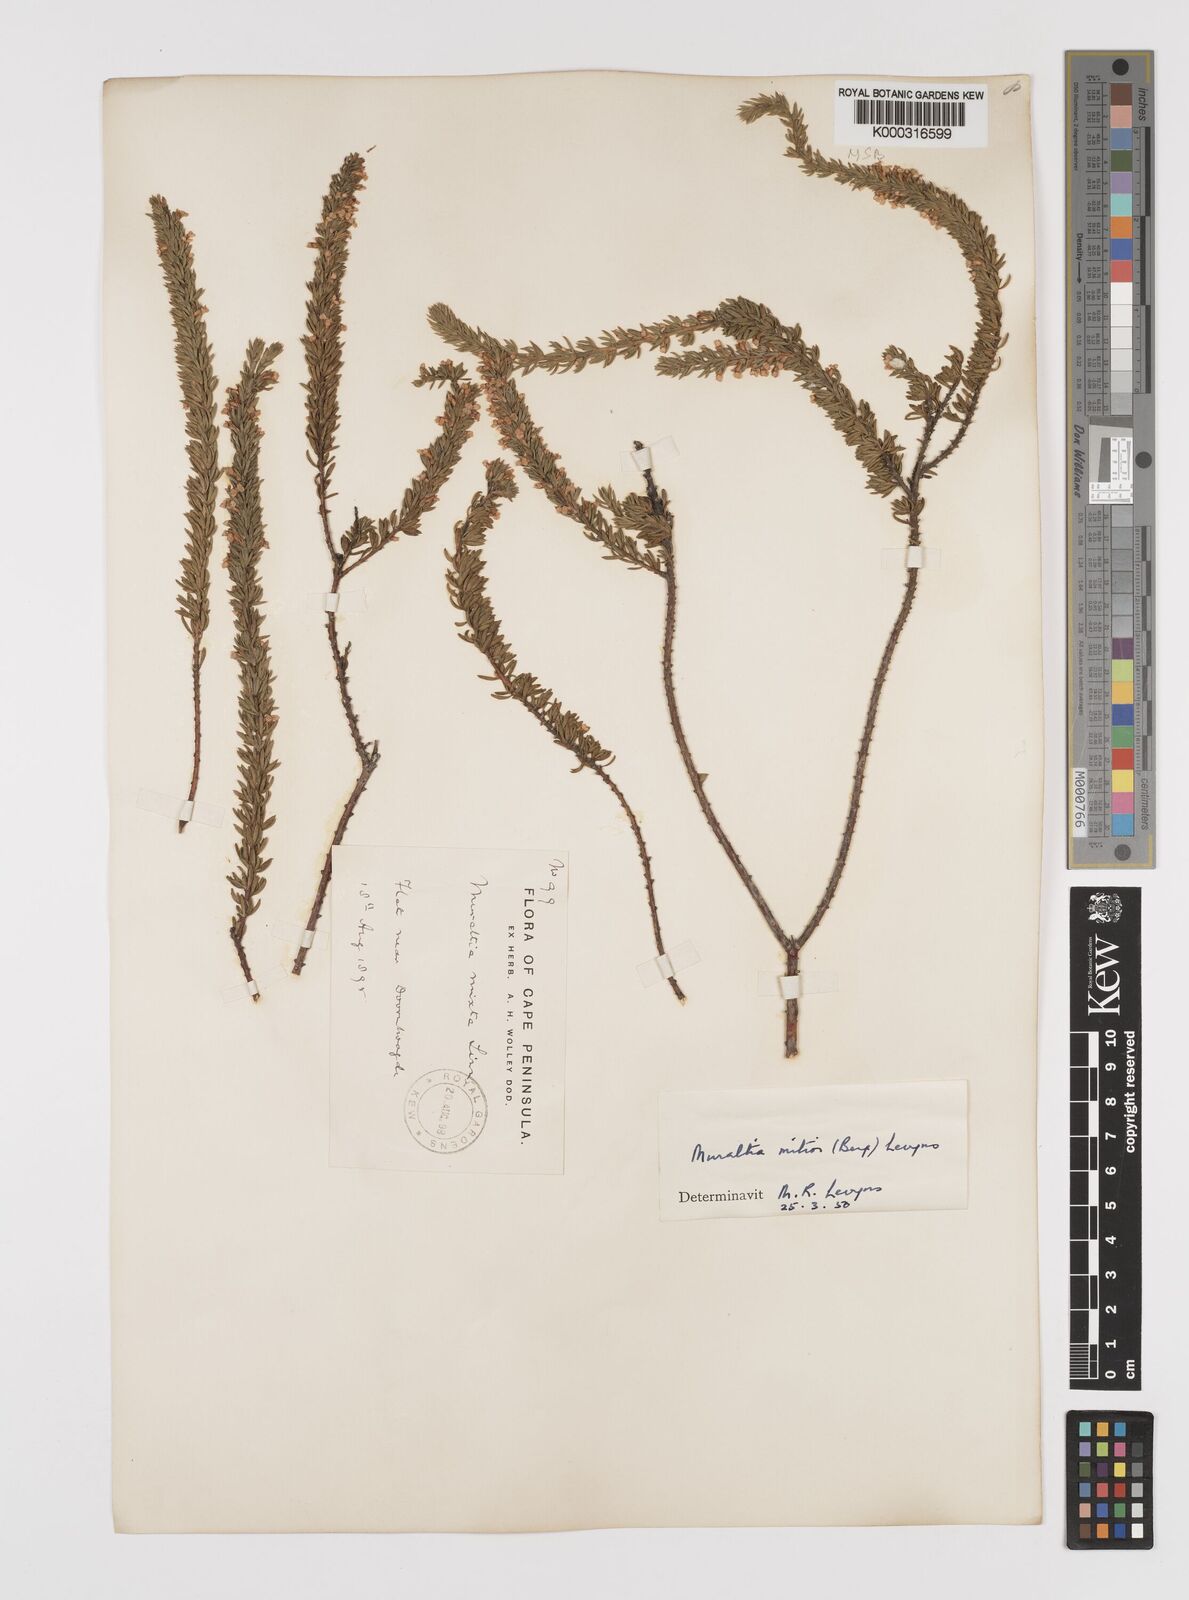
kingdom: Plantae
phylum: Tracheophyta
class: Magnoliopsida
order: Fabales
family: Polygalaceae
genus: Muraltia
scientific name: Muraltia
